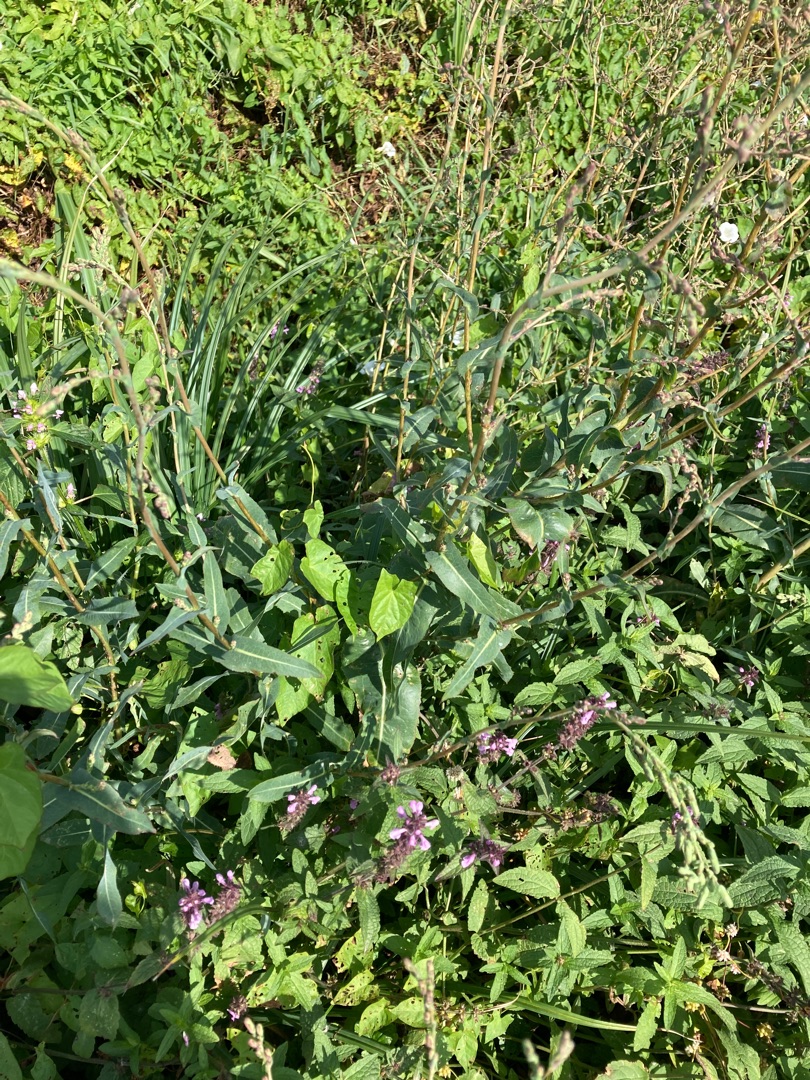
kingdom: Plantae
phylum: Tracheophyta
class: Magnoliopsida
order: Asterales
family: Asteraceae
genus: Lactuca
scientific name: Lactuca serriola
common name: Tornet salat
